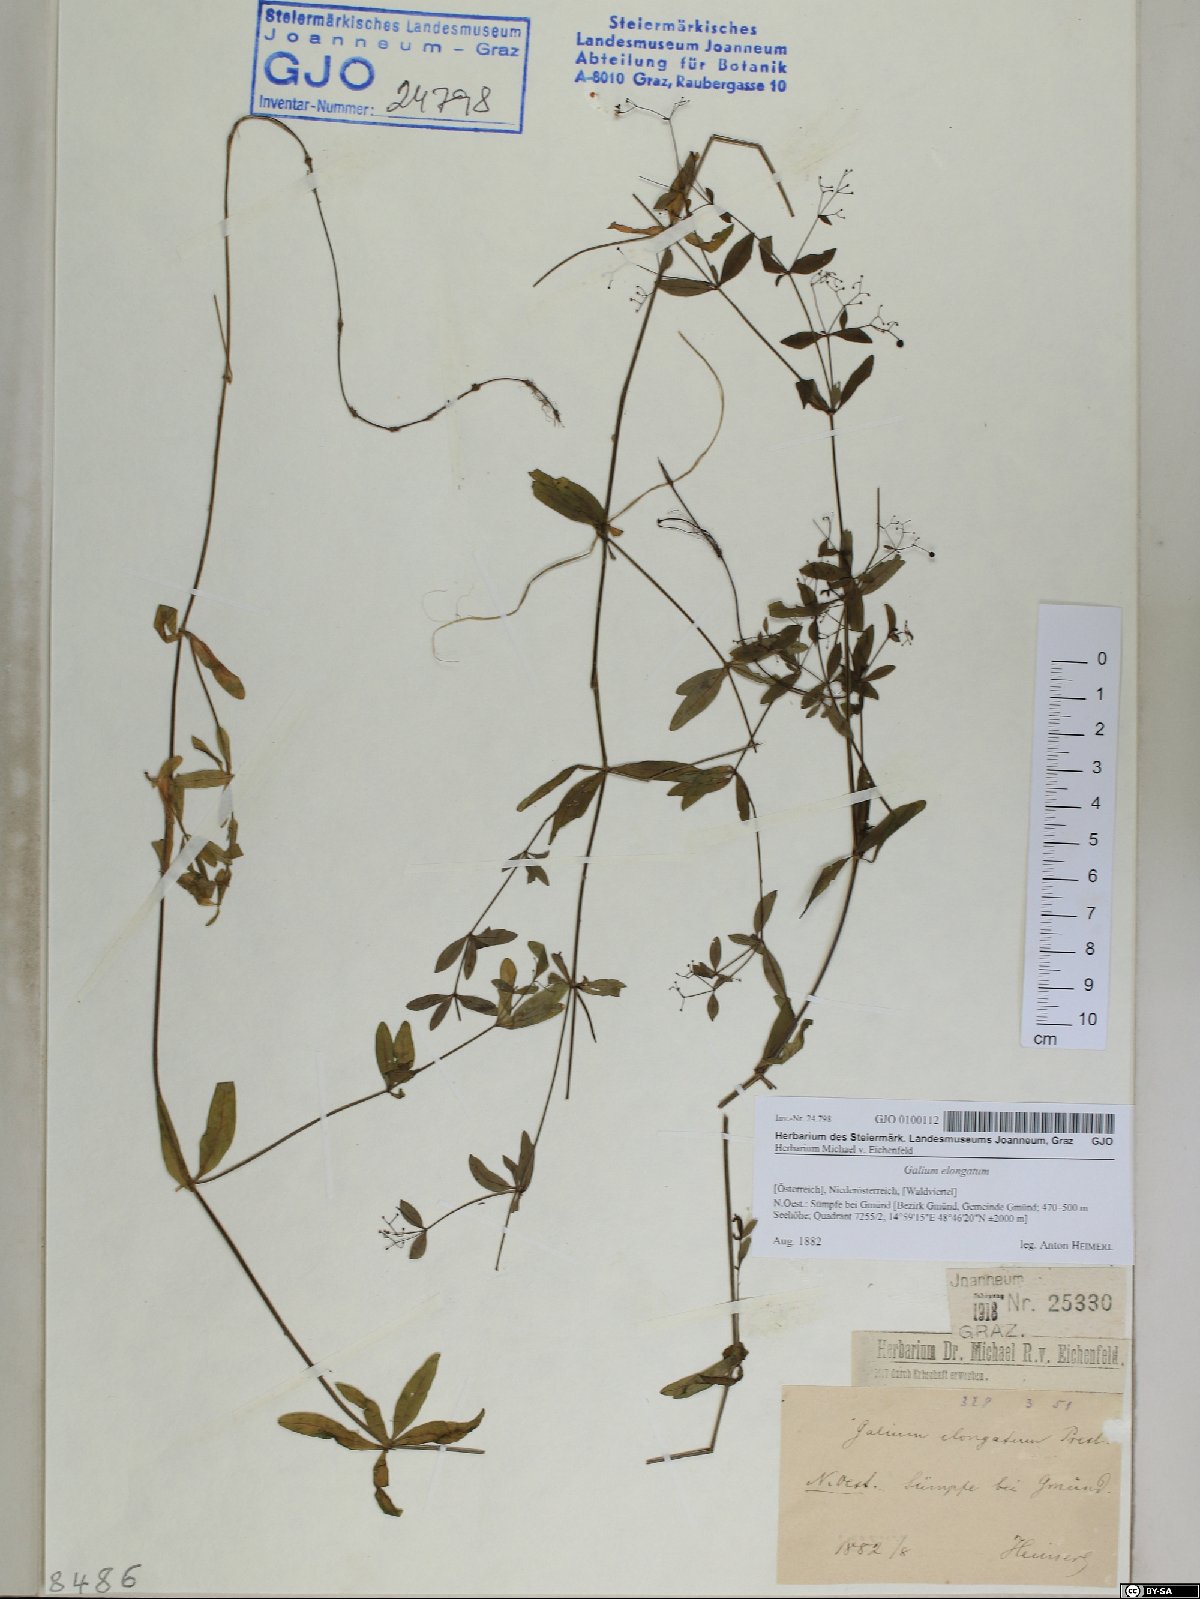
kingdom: Plantae
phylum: Tracheophyta
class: Magnoliopsida
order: Gentianales
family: Rubiaceae
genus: Galium
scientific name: Galium elongatum
